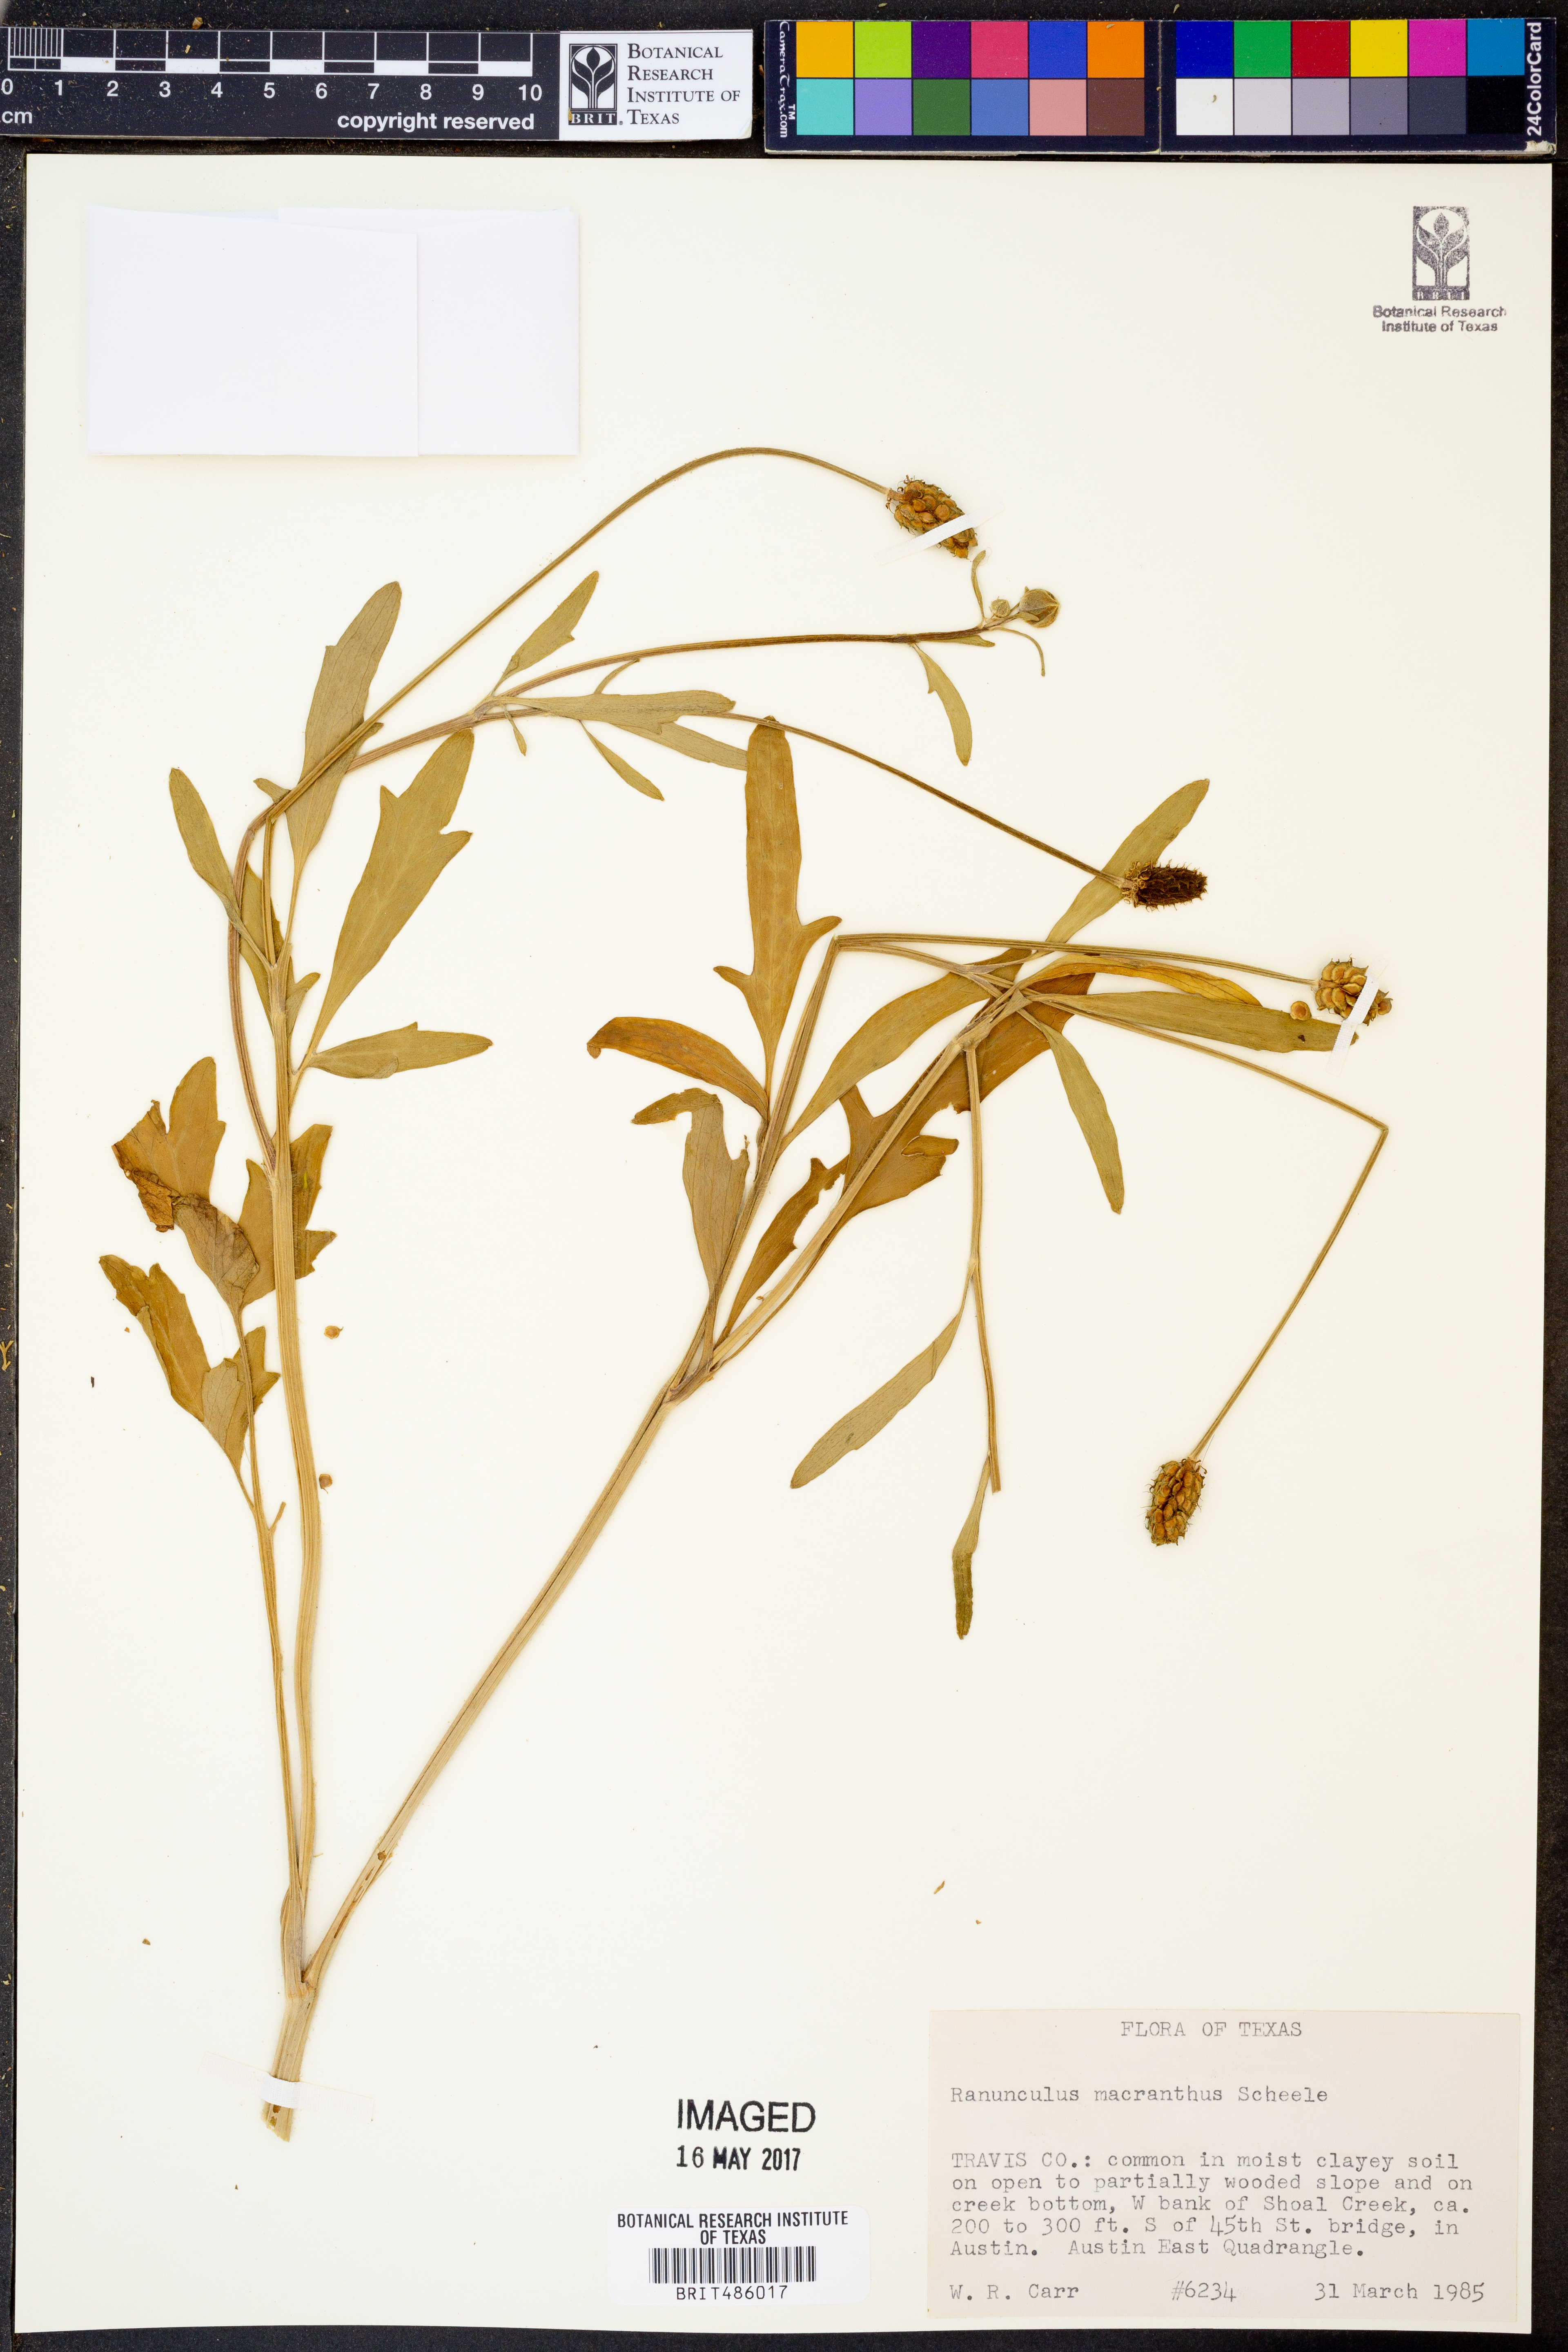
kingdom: Plantae
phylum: Tracheophyta
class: Magnoliopsida
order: Ranunculales
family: Ranunculaceae
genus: Ranunculus
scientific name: Ranunculus macranthus
